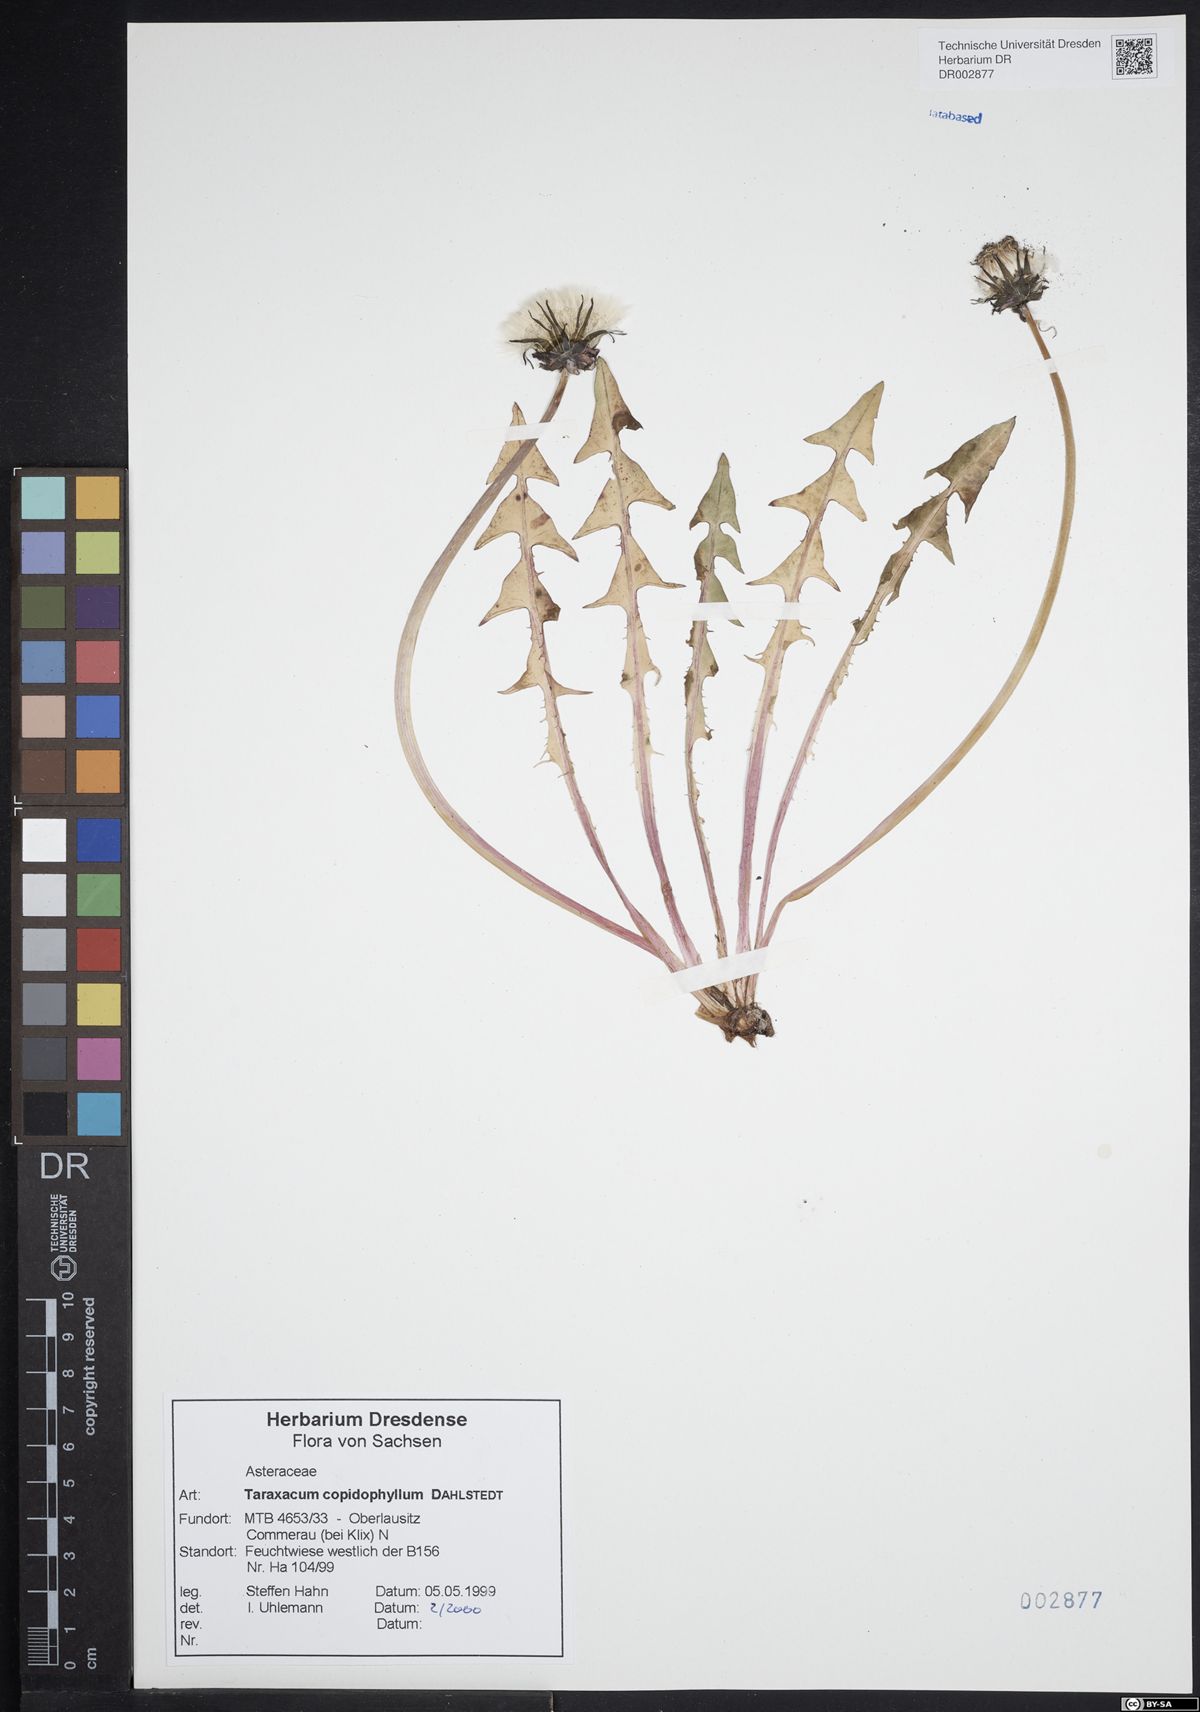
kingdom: Plantae
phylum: Tracheophyta
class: Magnoliopsida
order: Asterales
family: Asteraceae
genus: Taraxacum
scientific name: Taraxacum copidophyllum
